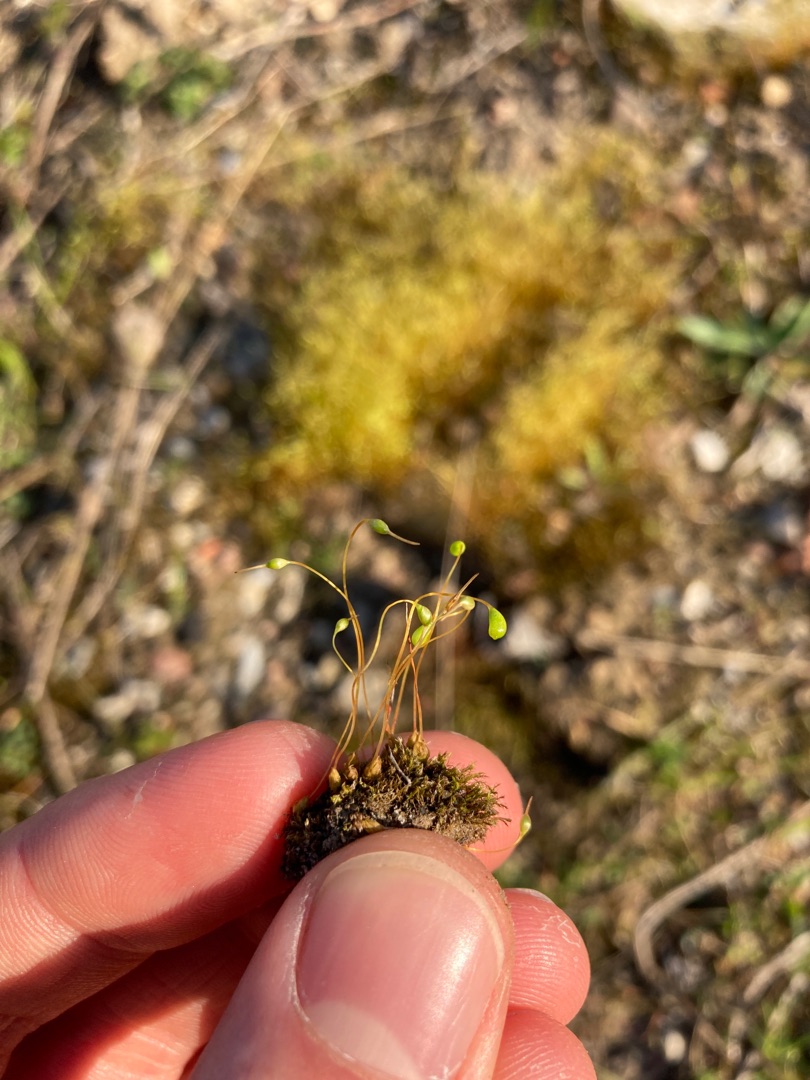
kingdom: Plantae
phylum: Bryophyta
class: Bryopsida
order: Funariales
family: Funariaceae
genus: Funaria
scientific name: Funaria hygrometrica
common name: Almindelig snobørste
